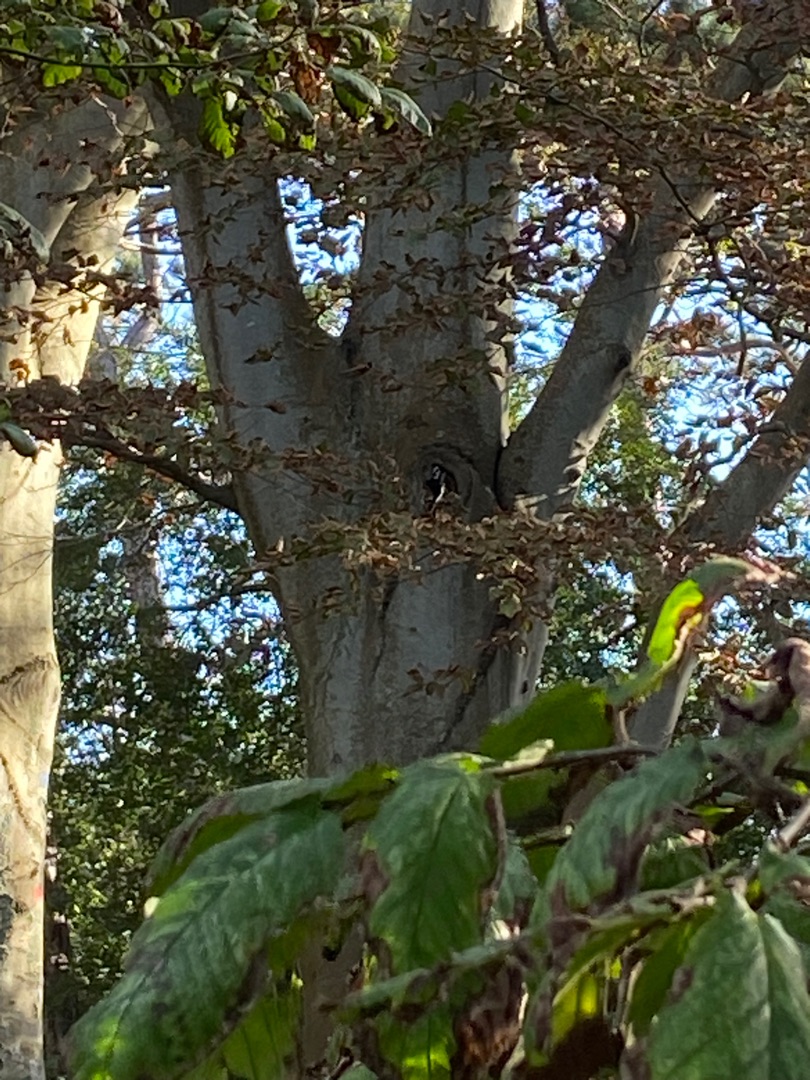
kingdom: Animalia
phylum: Chordata
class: Aves
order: Piciformes
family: Picidae
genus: Dendrocopos
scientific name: Dendrocopos major
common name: Stor flagspætte
